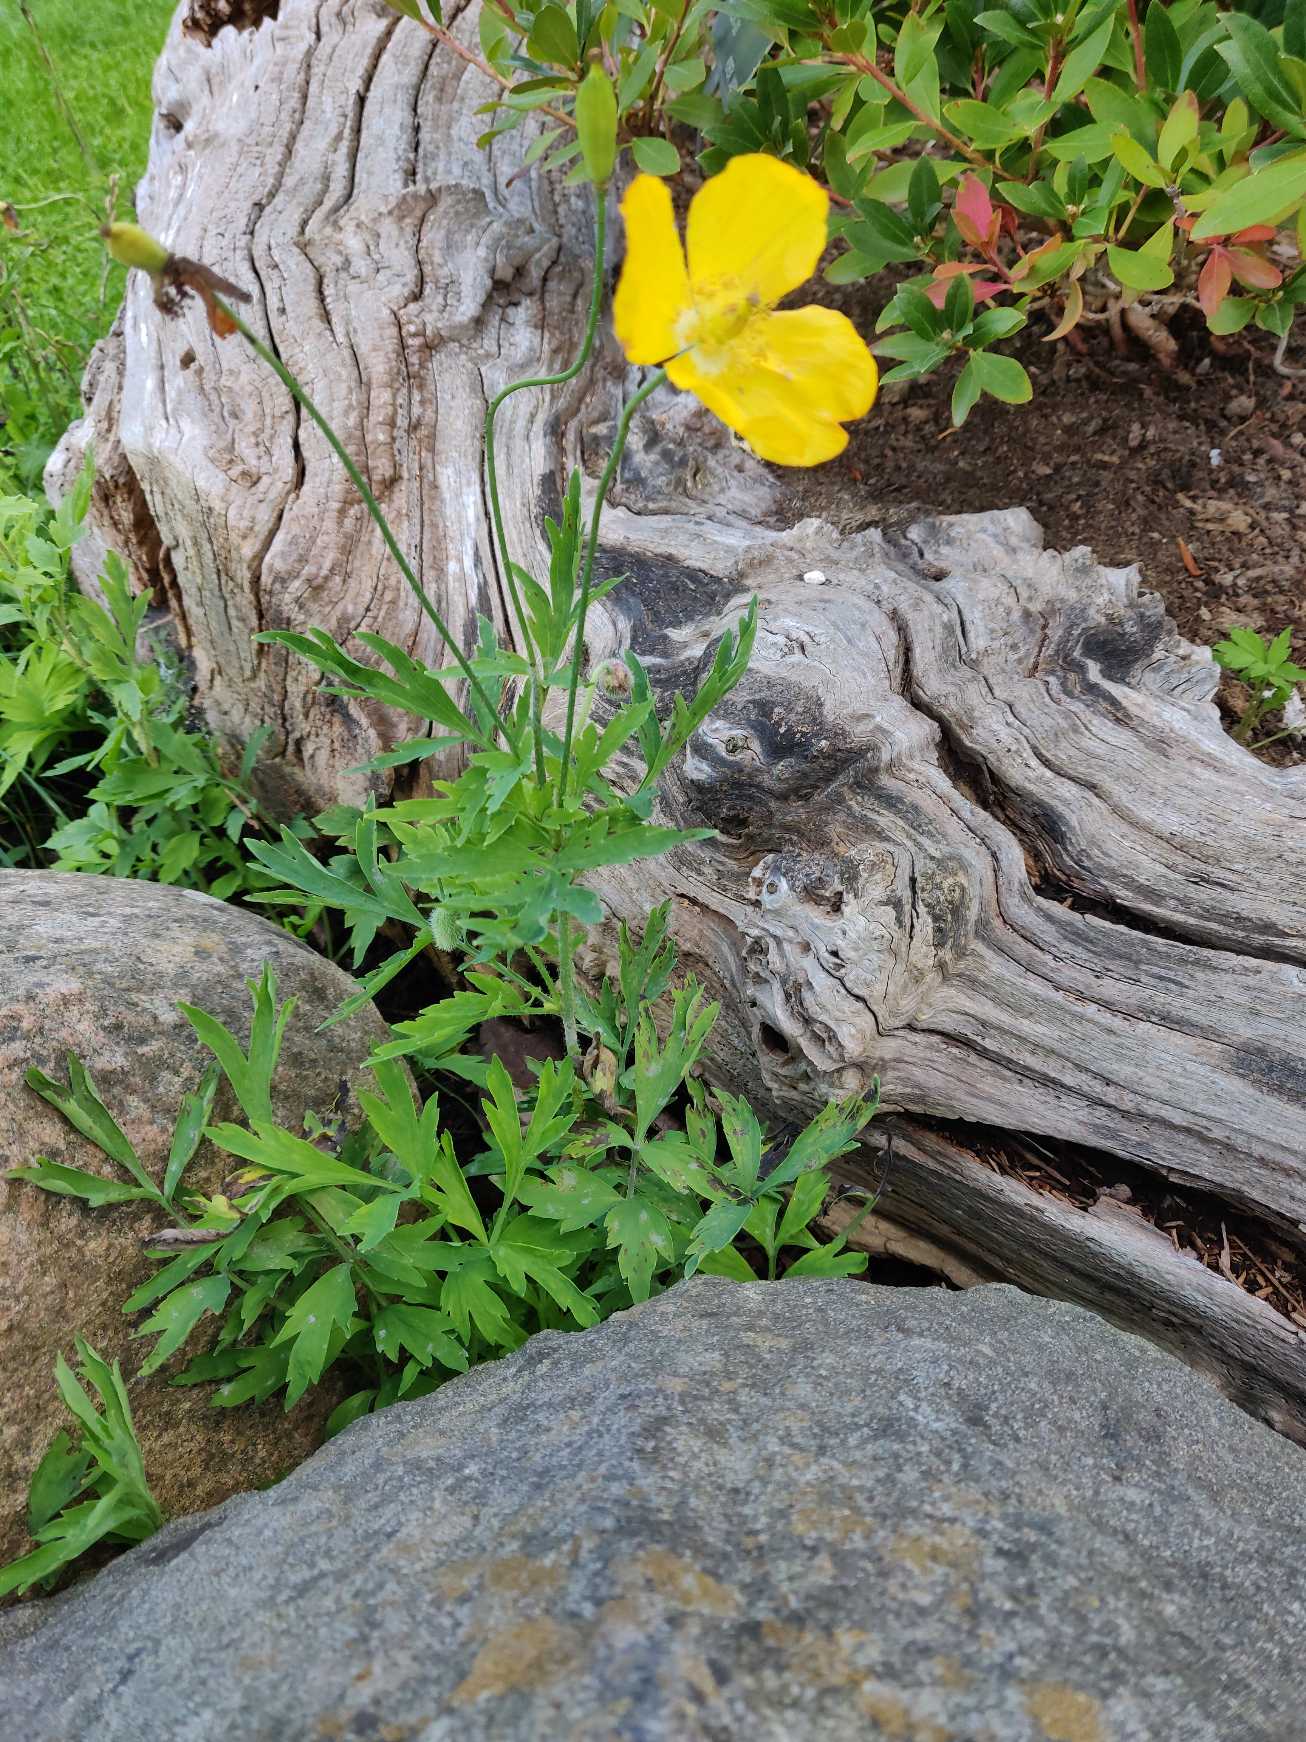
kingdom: Plantae
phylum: Tracheophyta
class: Magnoliopsida
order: Ranunculales
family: Papaveraceae
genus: Papaver
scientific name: Papaver cambricum
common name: Skov-valmue
